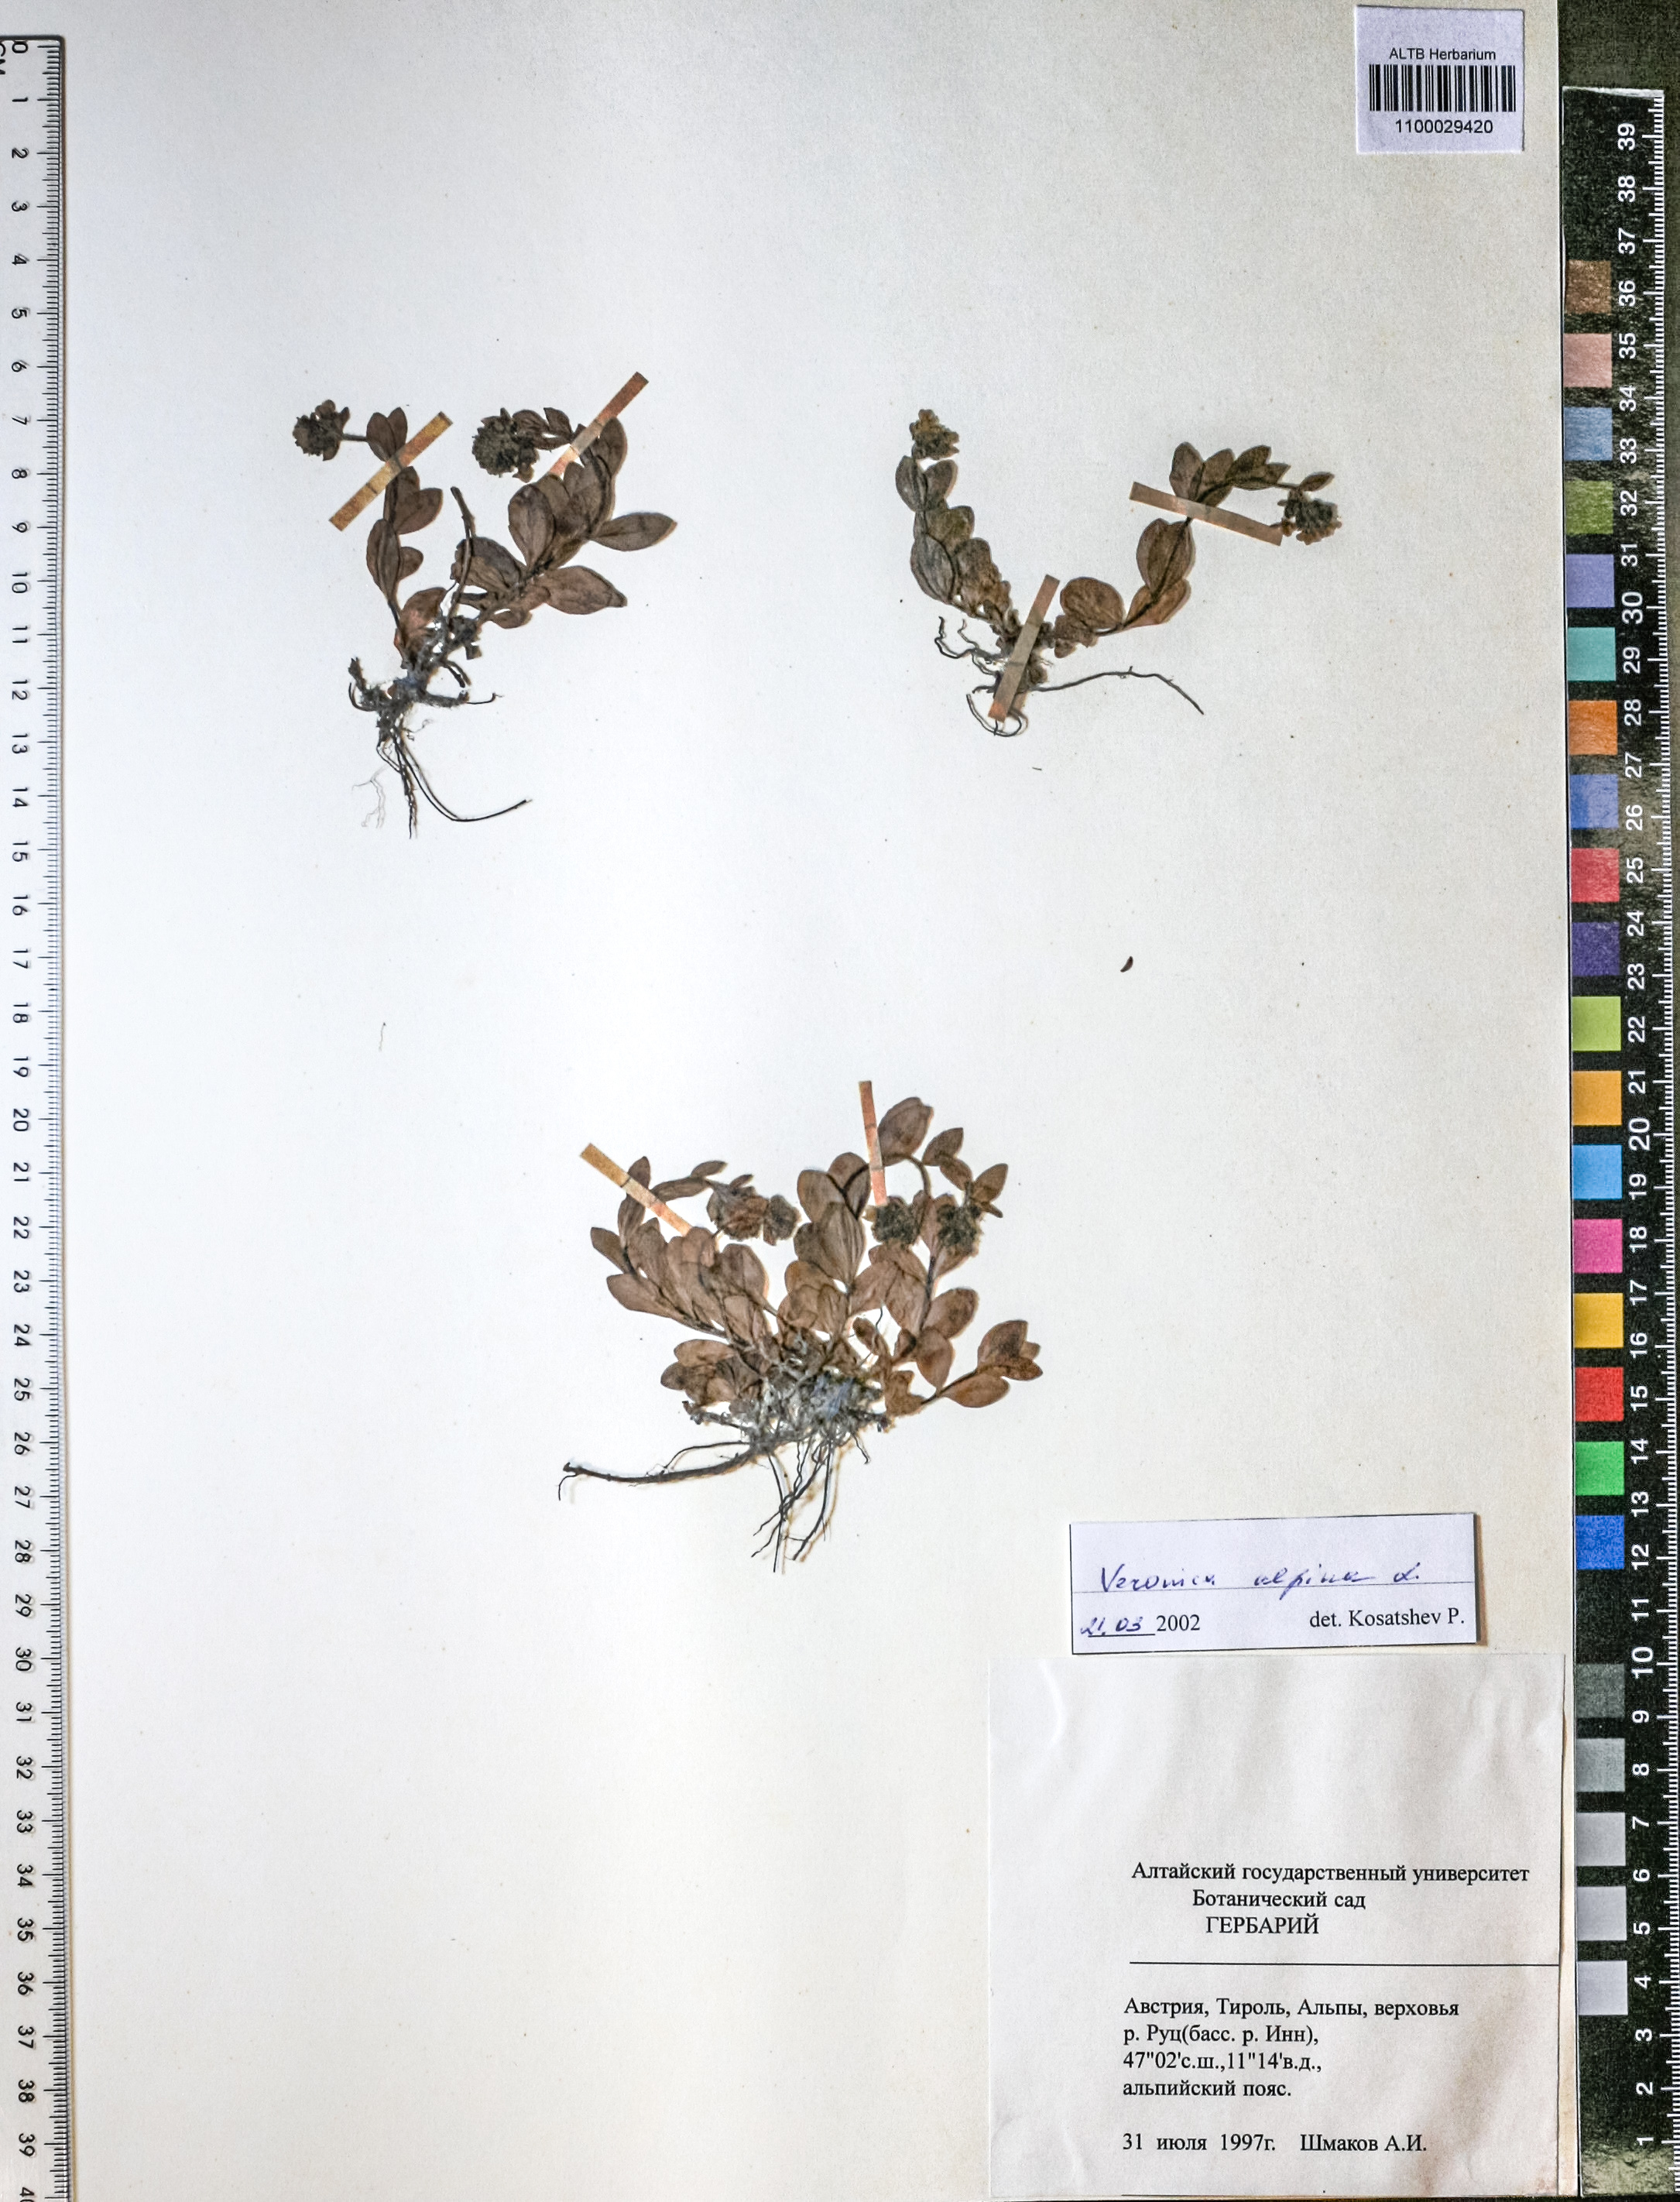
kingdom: Plantae
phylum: Tracheophyta
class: Magnoliopsida
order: Lamiales
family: Plantaginaceae
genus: Veronica
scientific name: Veronica porphyriana
